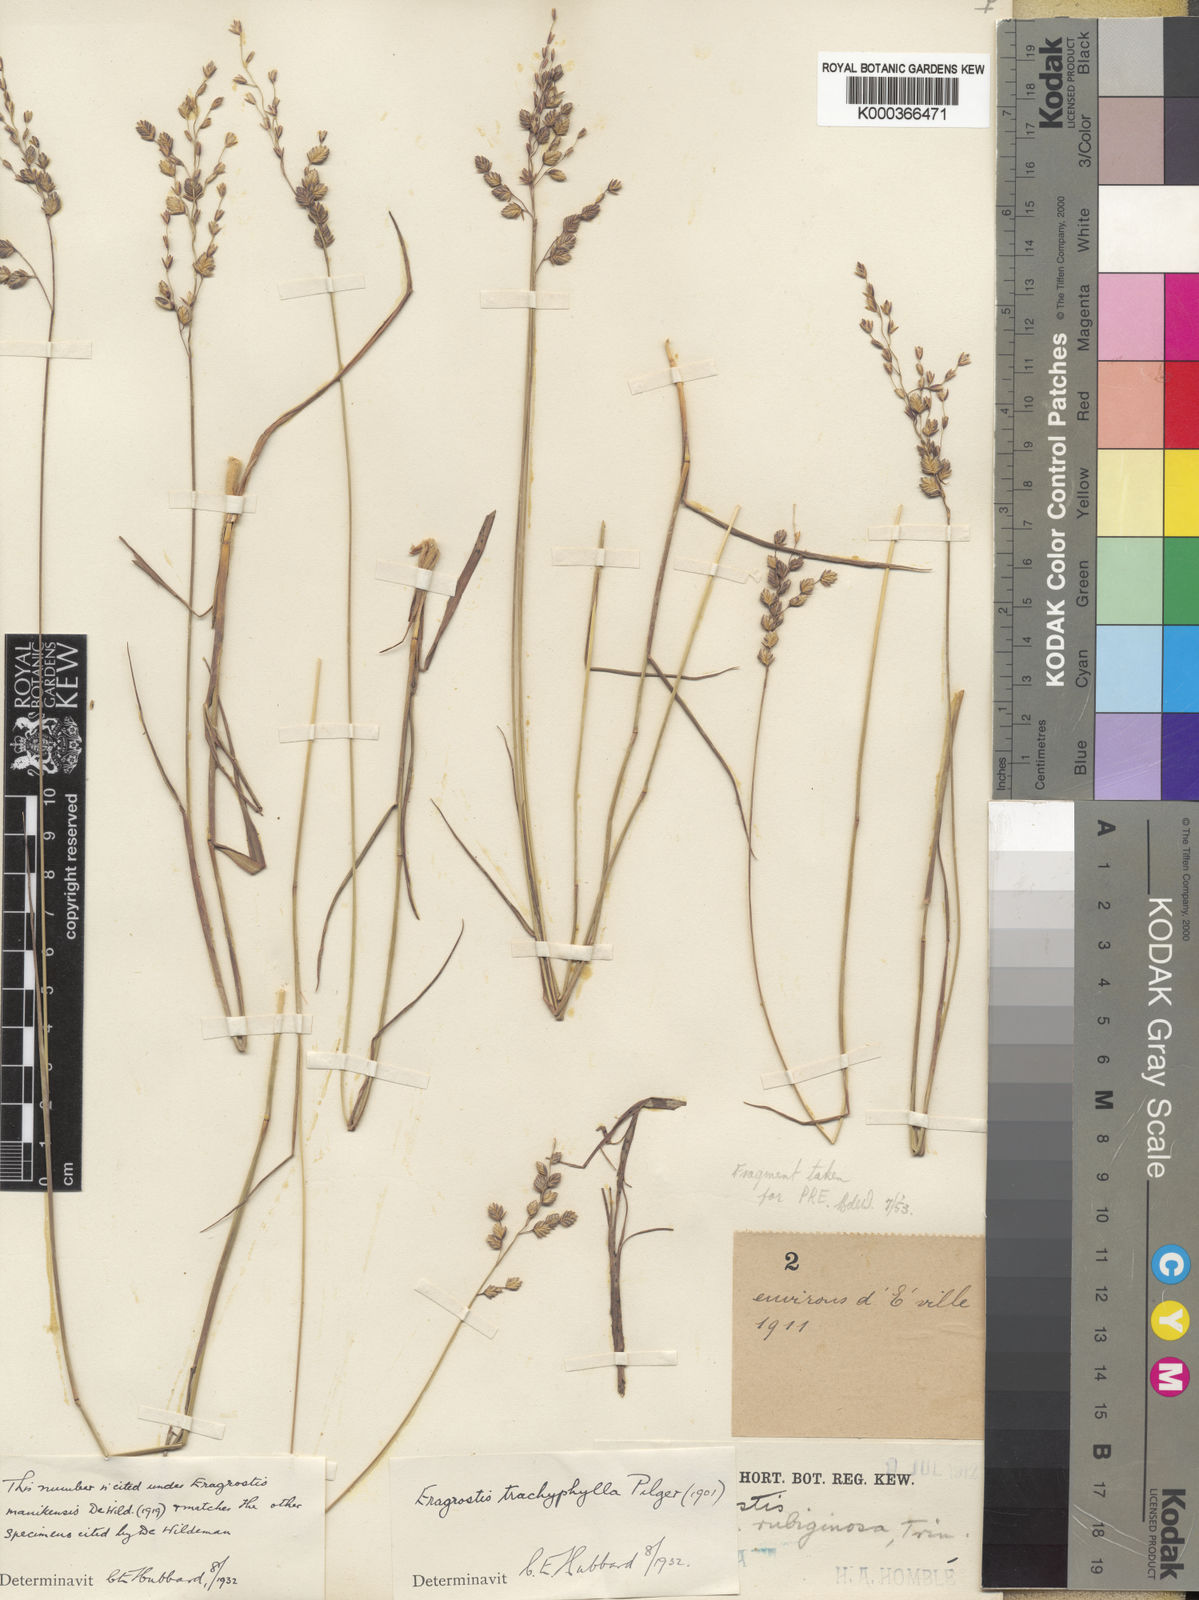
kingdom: Plantae
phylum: Tracheophyta
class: Liliopsida
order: Poales
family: Poaceae
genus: Eragrostis
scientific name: Eragrostis capensis
